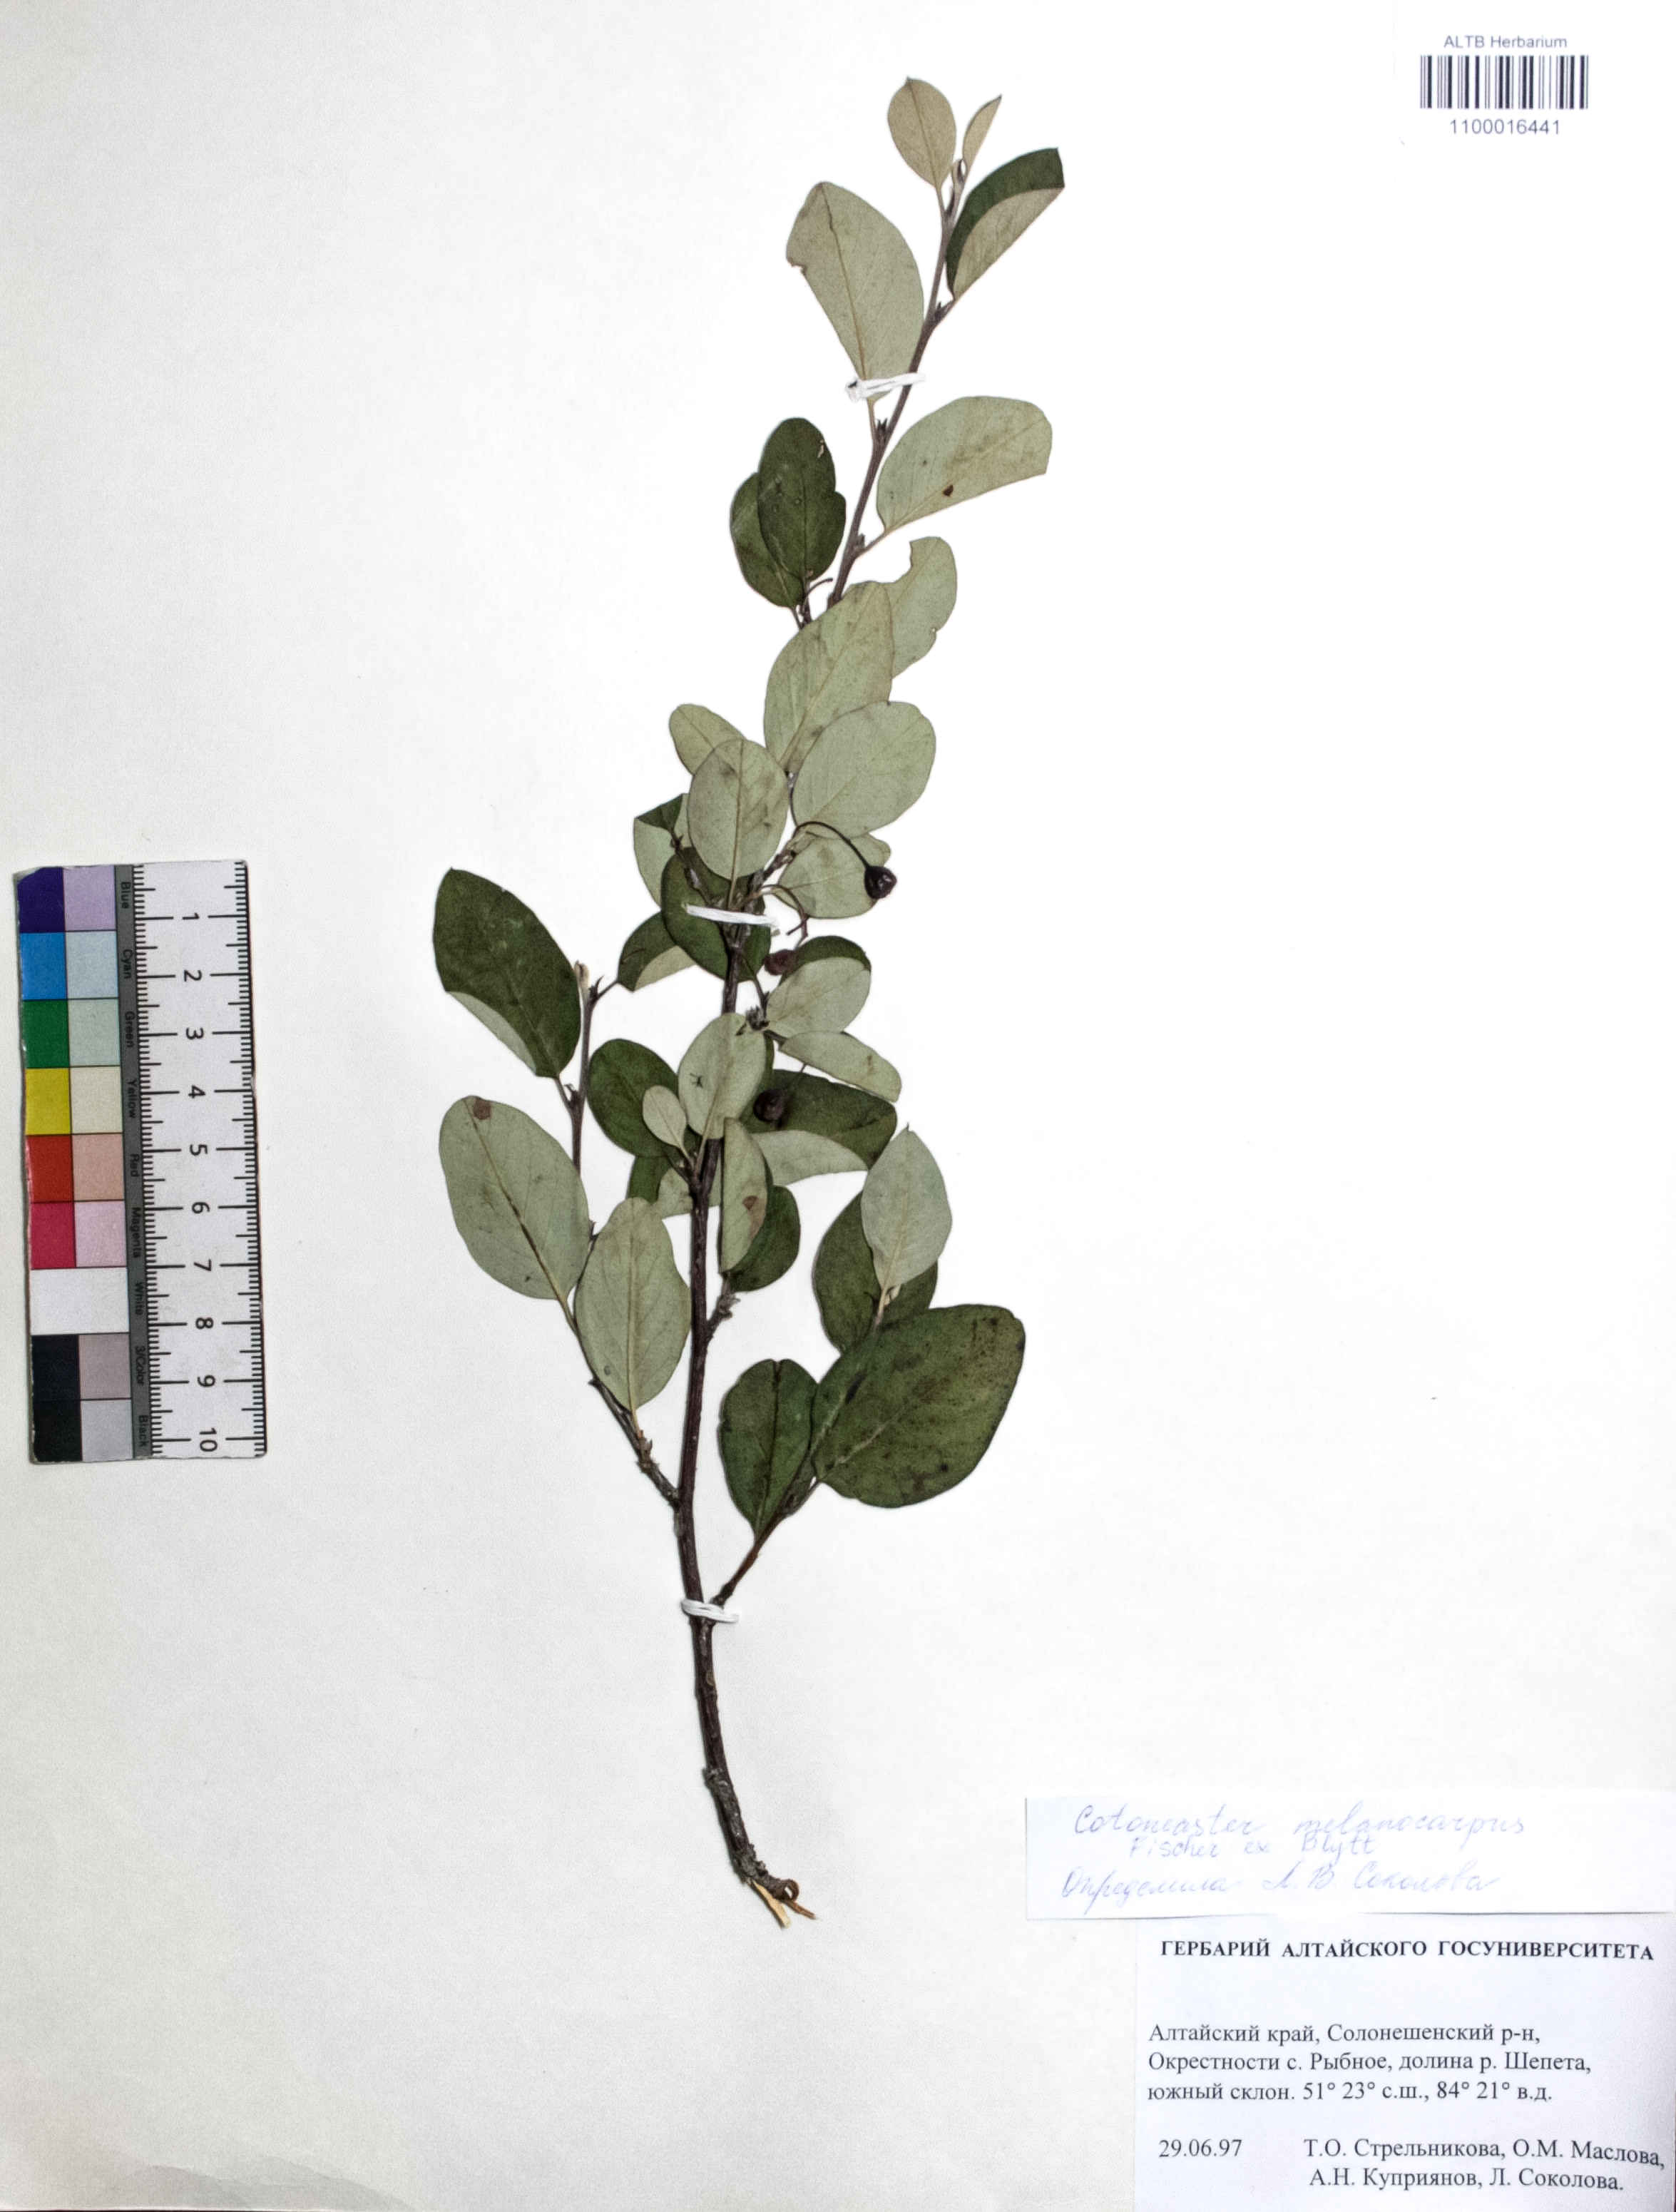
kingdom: Plantae
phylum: Tracheophyta
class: Magnoliopsida
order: Rosales
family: Rosaceae
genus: Cotoneaster
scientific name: Cotoneaster niger
